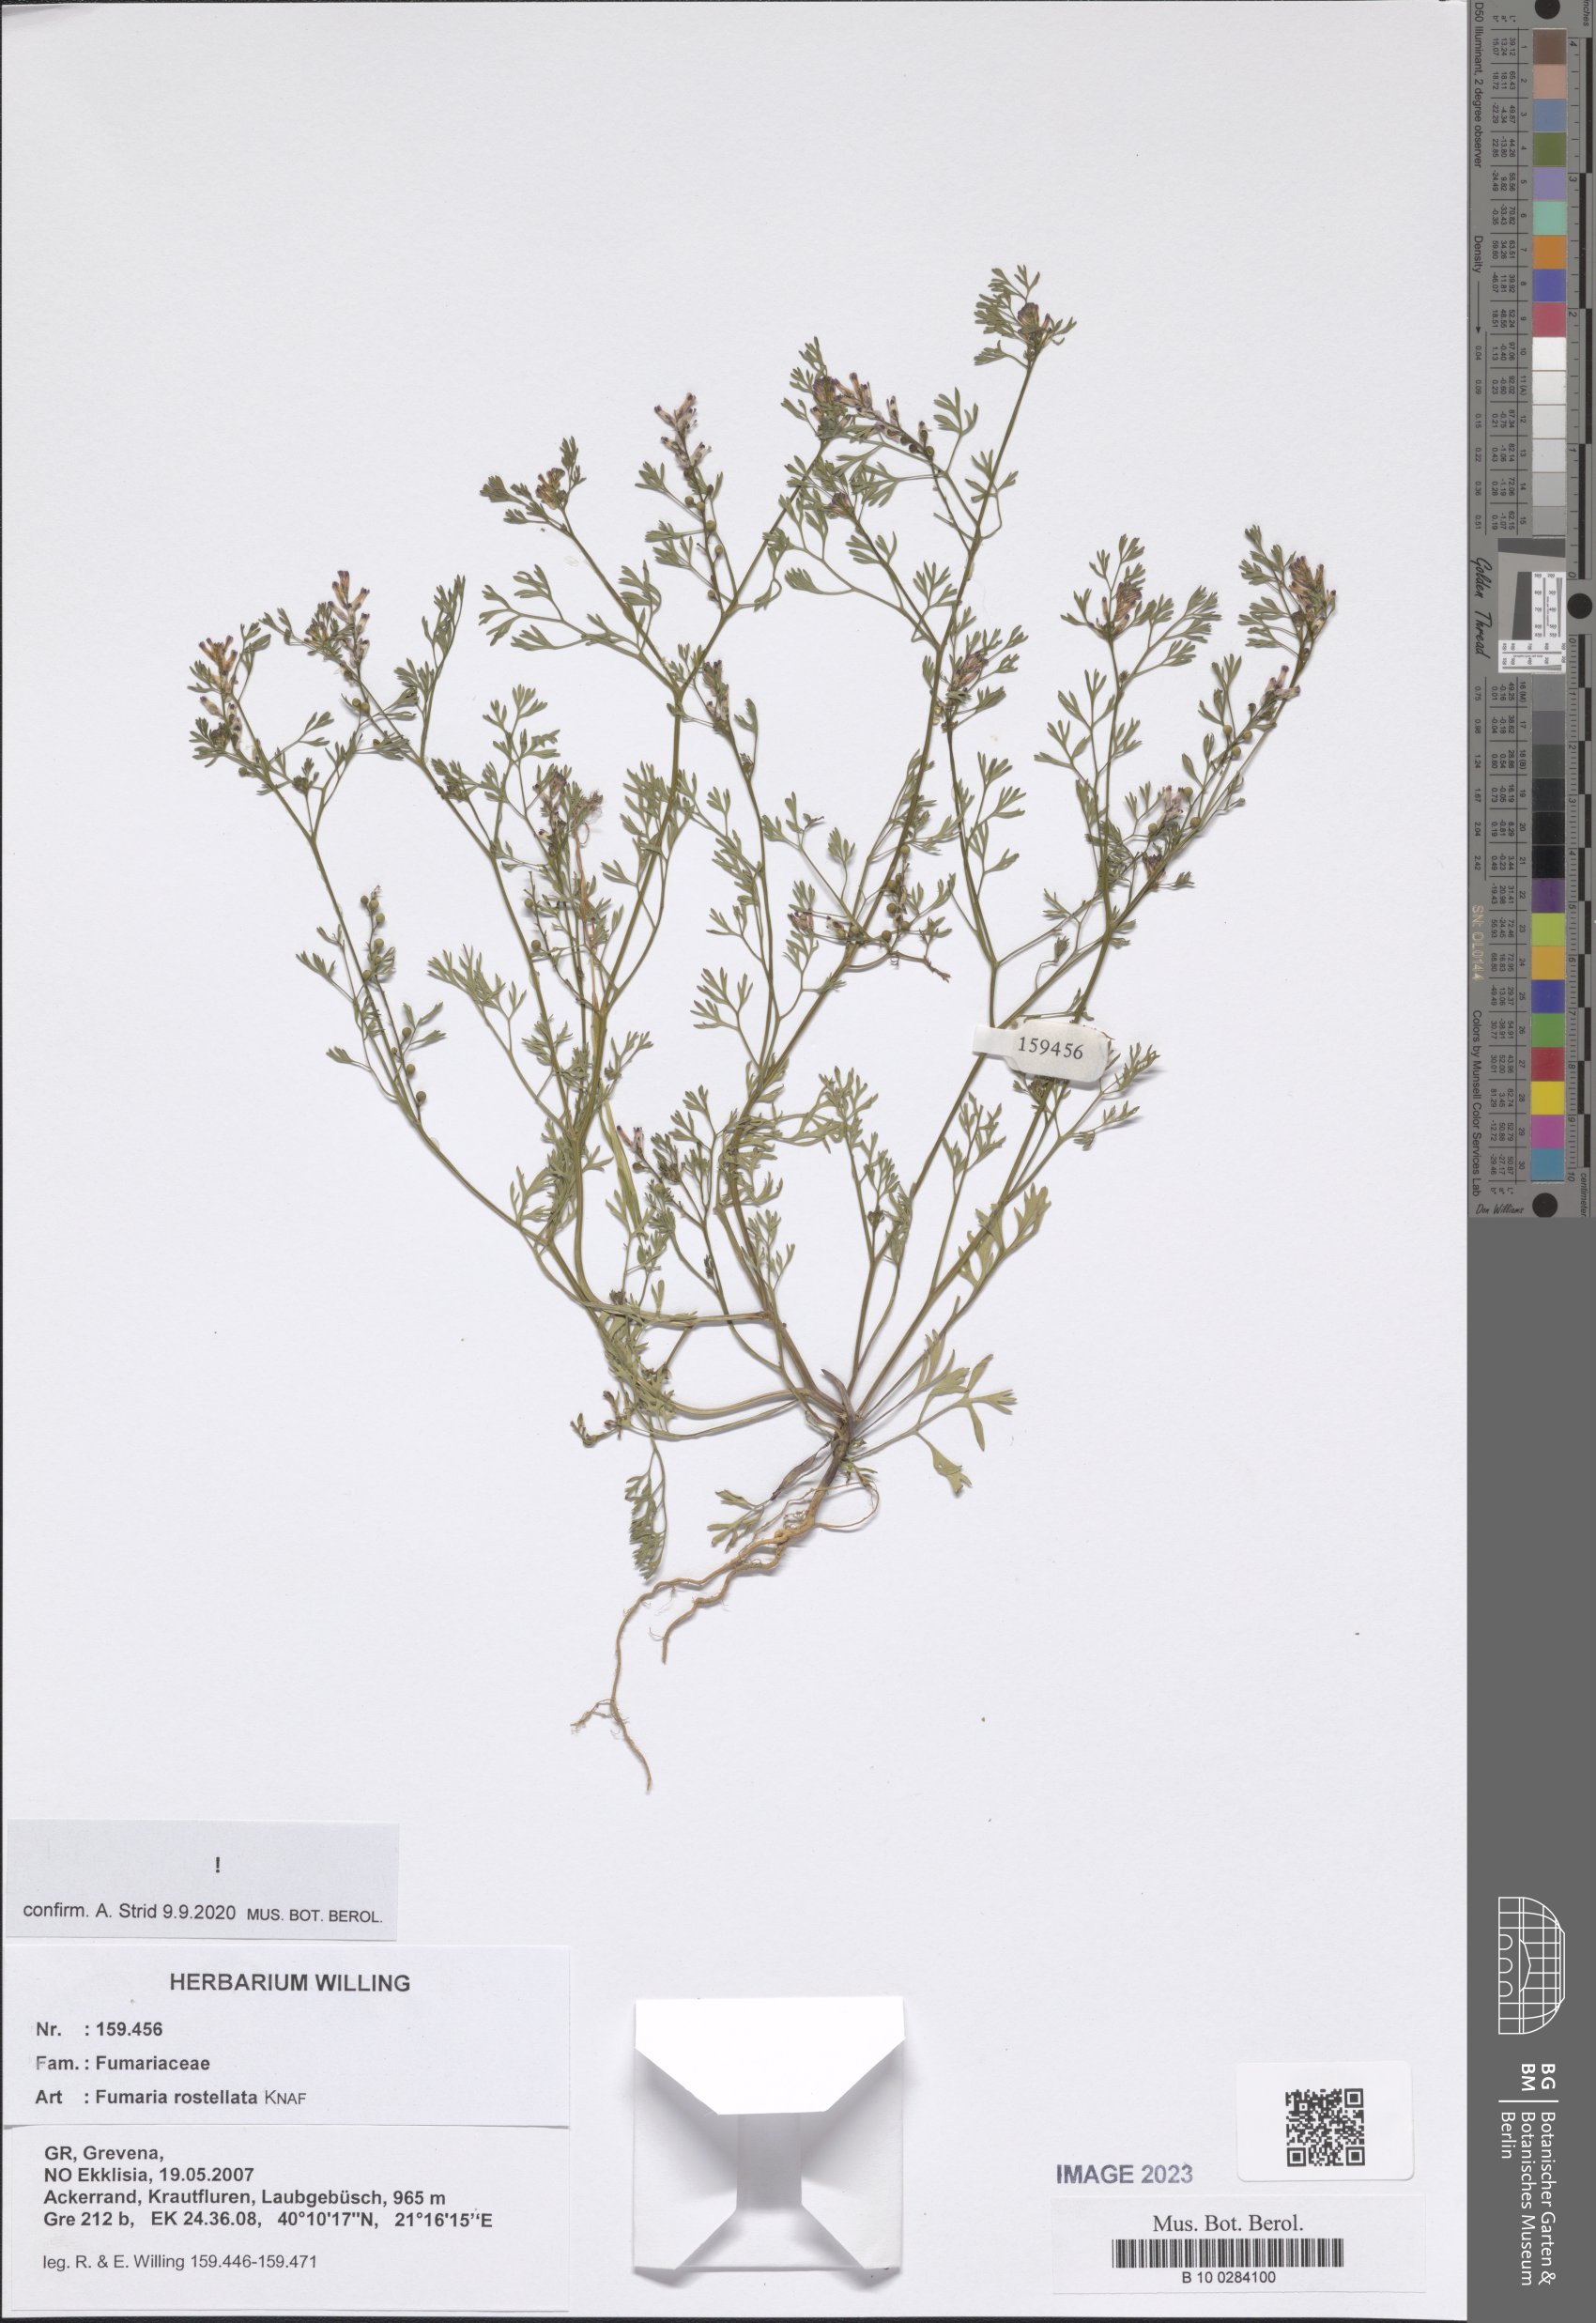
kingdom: Plantae
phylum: Tracheophyta
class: Magnoliopsida
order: Ranunculales
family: Papaveraceae
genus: Fumaria
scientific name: Fumaria rostellata
